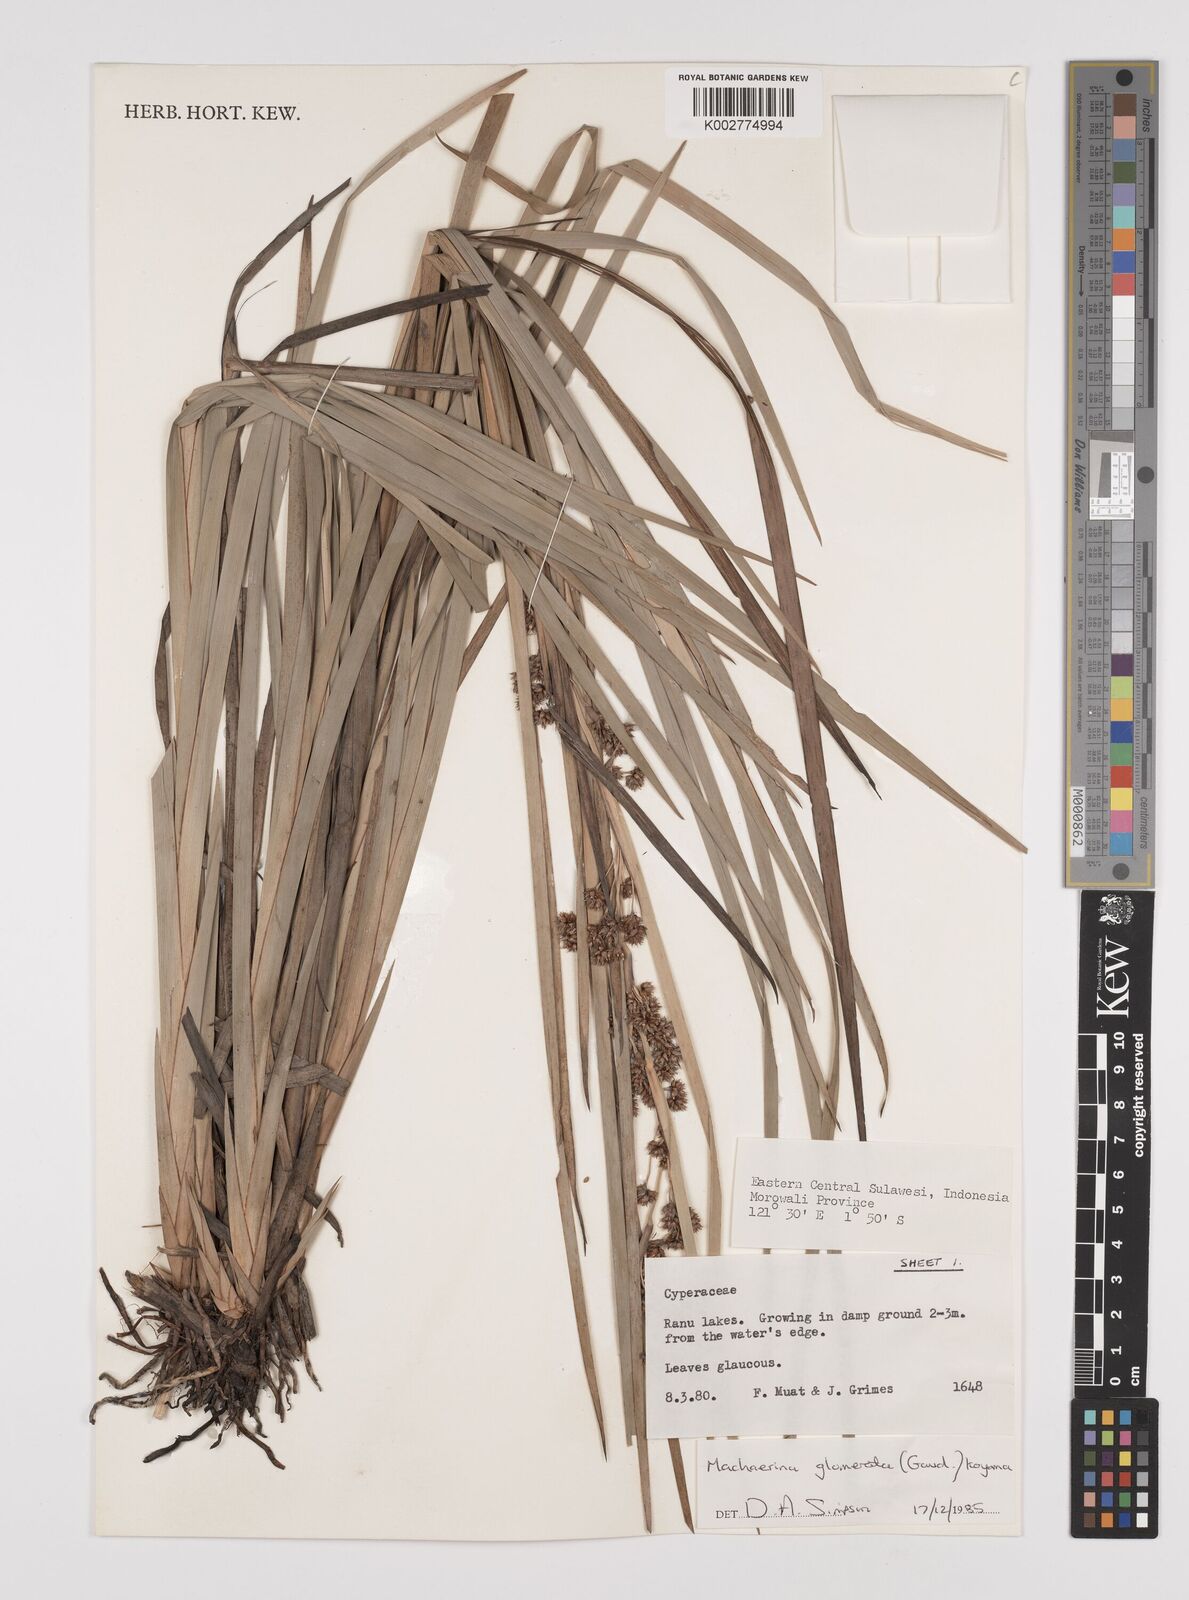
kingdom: Plantae
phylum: Tracheophyta
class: Liliopsida
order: Poales
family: Cyperaceae
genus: Machaerina
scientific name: Machaerina glomerata
